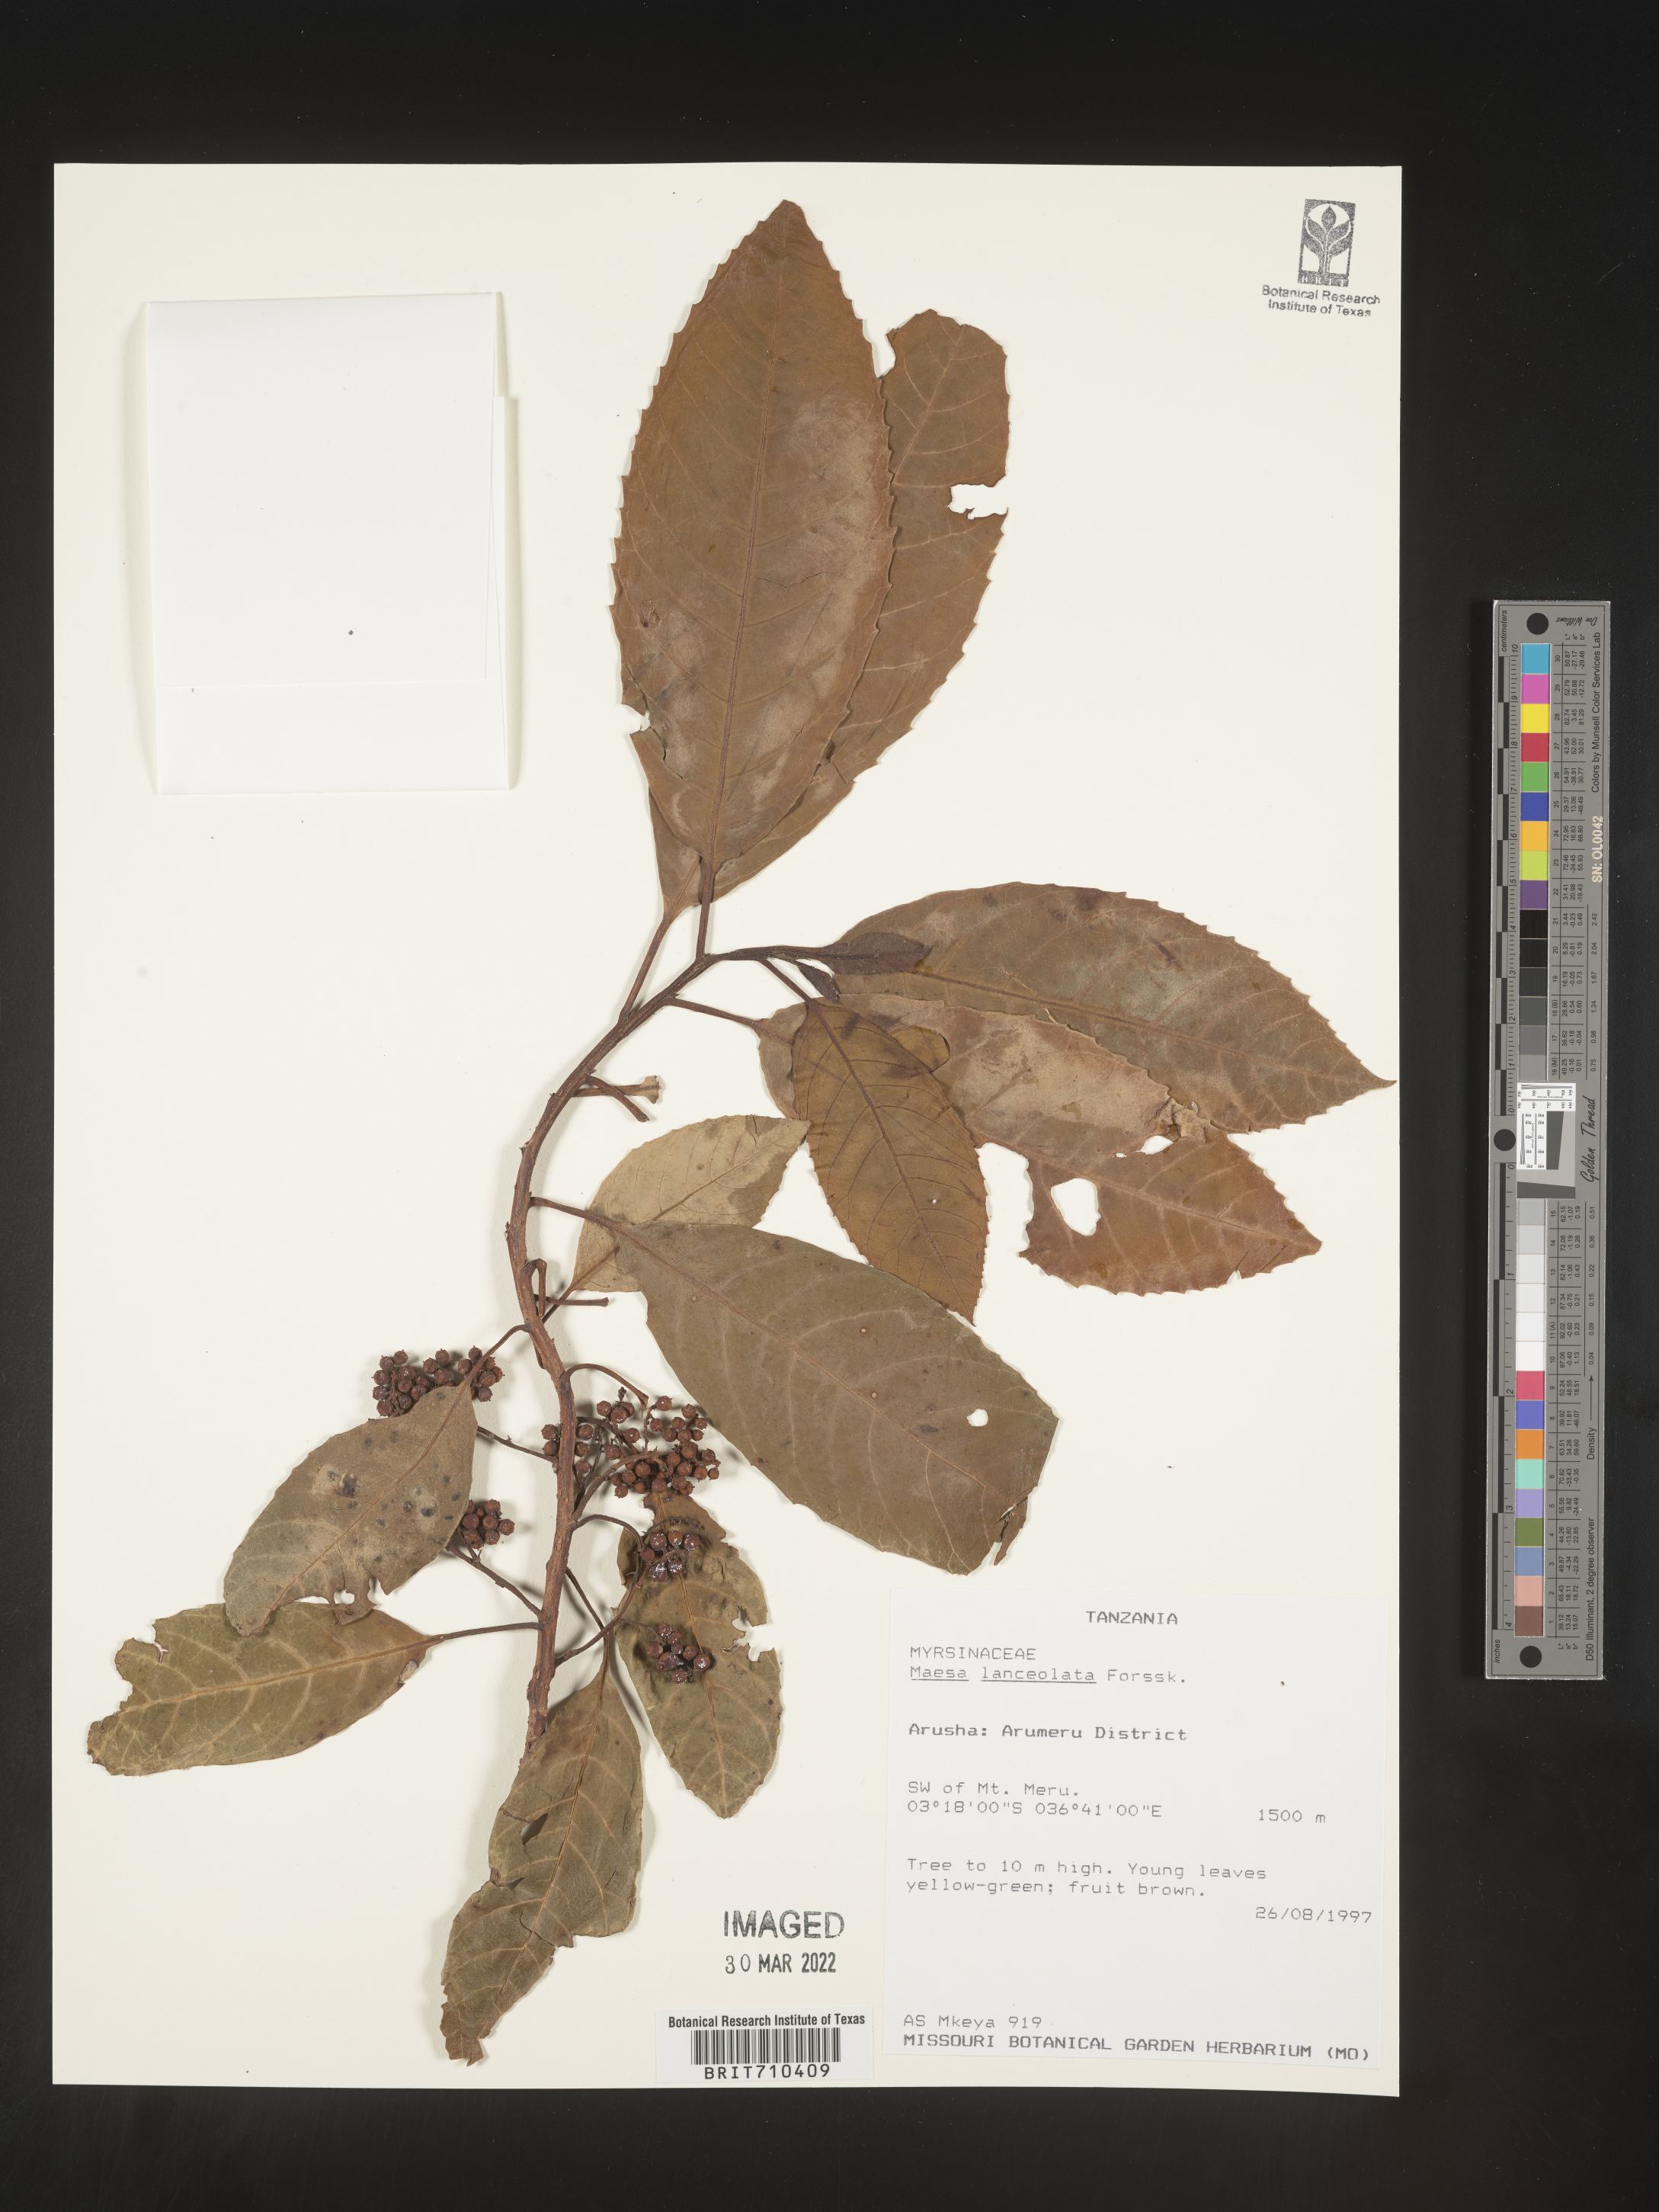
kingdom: Plantae
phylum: Tracheophyta
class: Magnoliopsida
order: Ericales
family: Primulaceae
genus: Maesa
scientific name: Maesa
